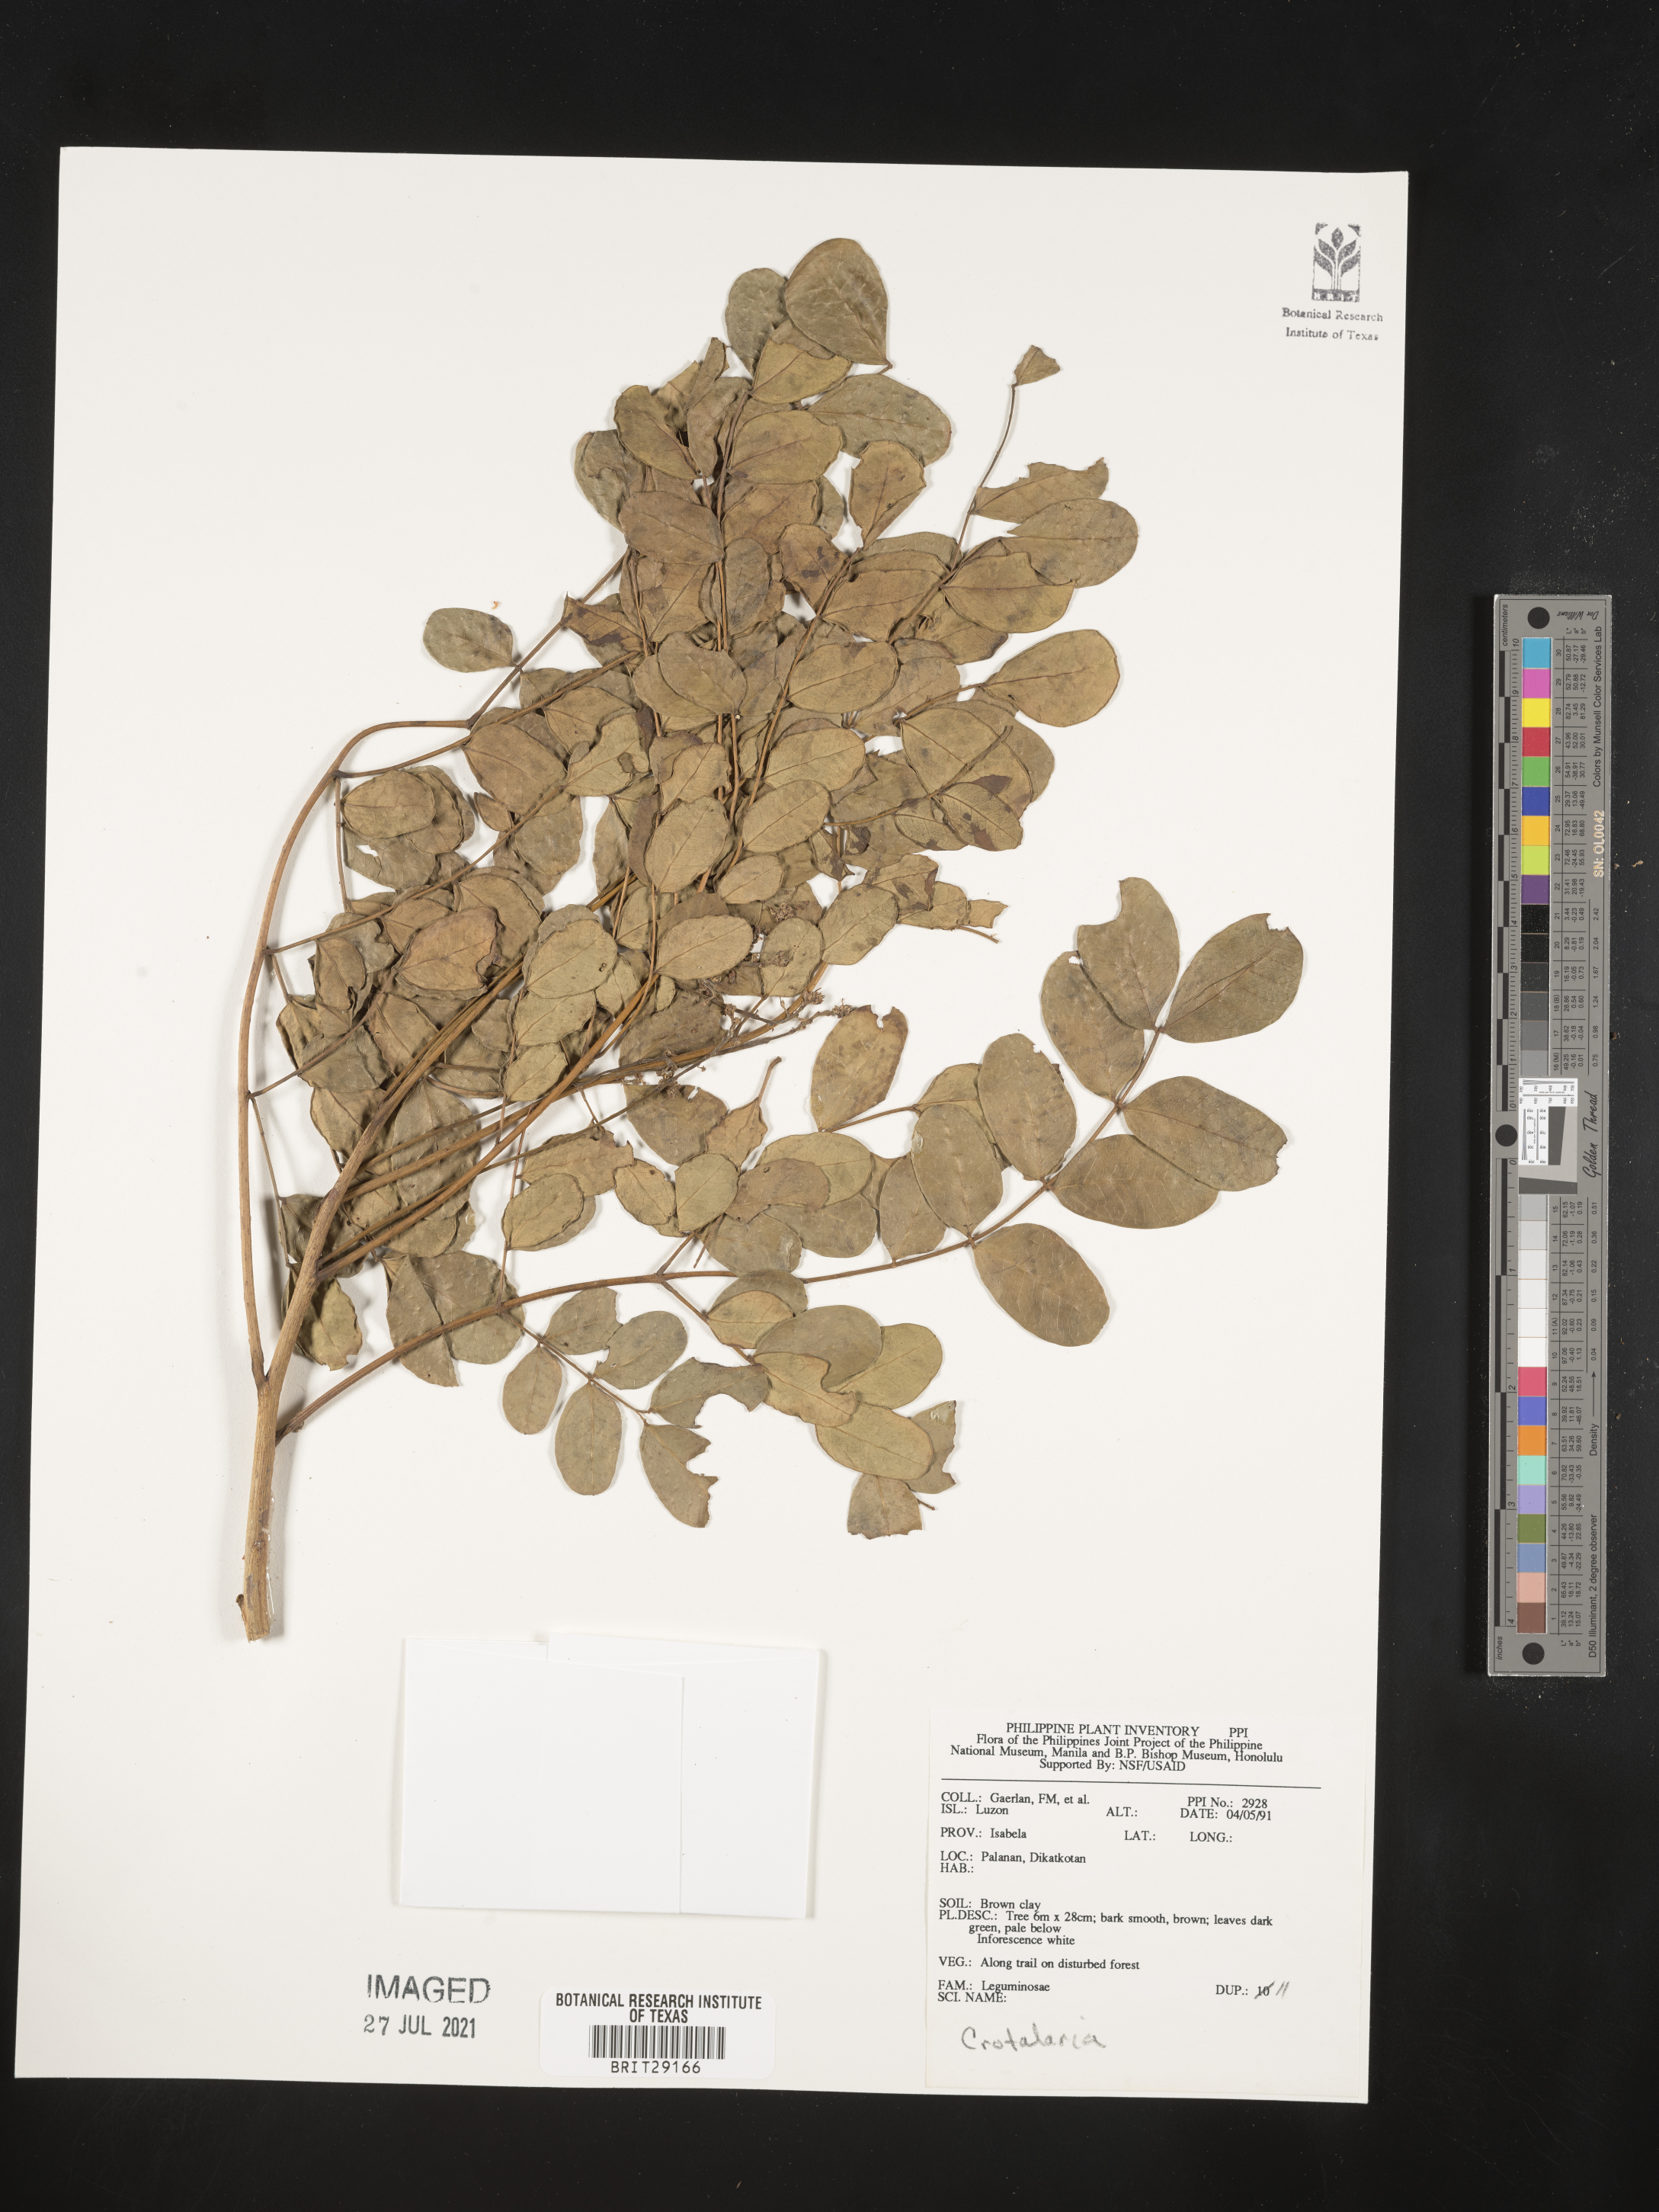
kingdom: Plantae
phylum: Tracheophyta
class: Magnoliopsida
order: Fabales
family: Fabaceae
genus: Crotalaria
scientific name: Crotalaria
